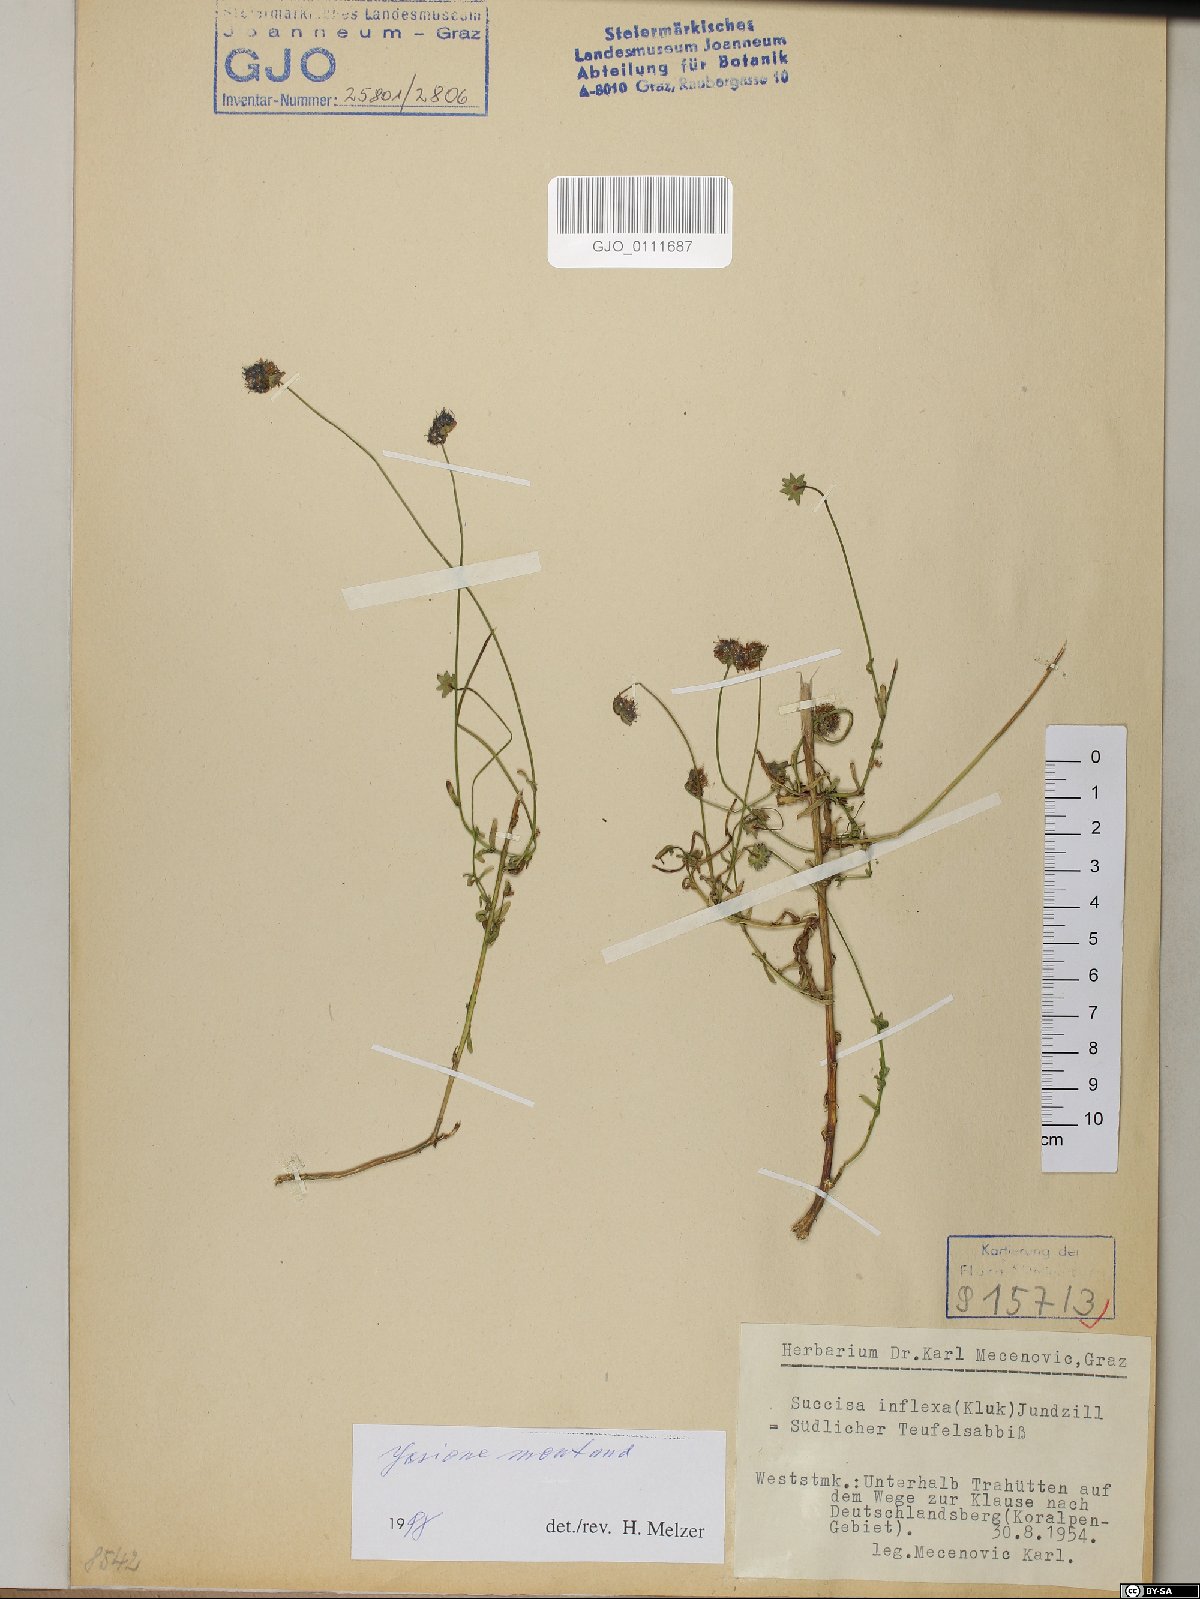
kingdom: Plantae
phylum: Tracheophyta
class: Magnoliopsida
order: Asterales
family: Campanulaceae
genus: Jasione
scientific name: Jasione montana
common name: Sheep's-bit
